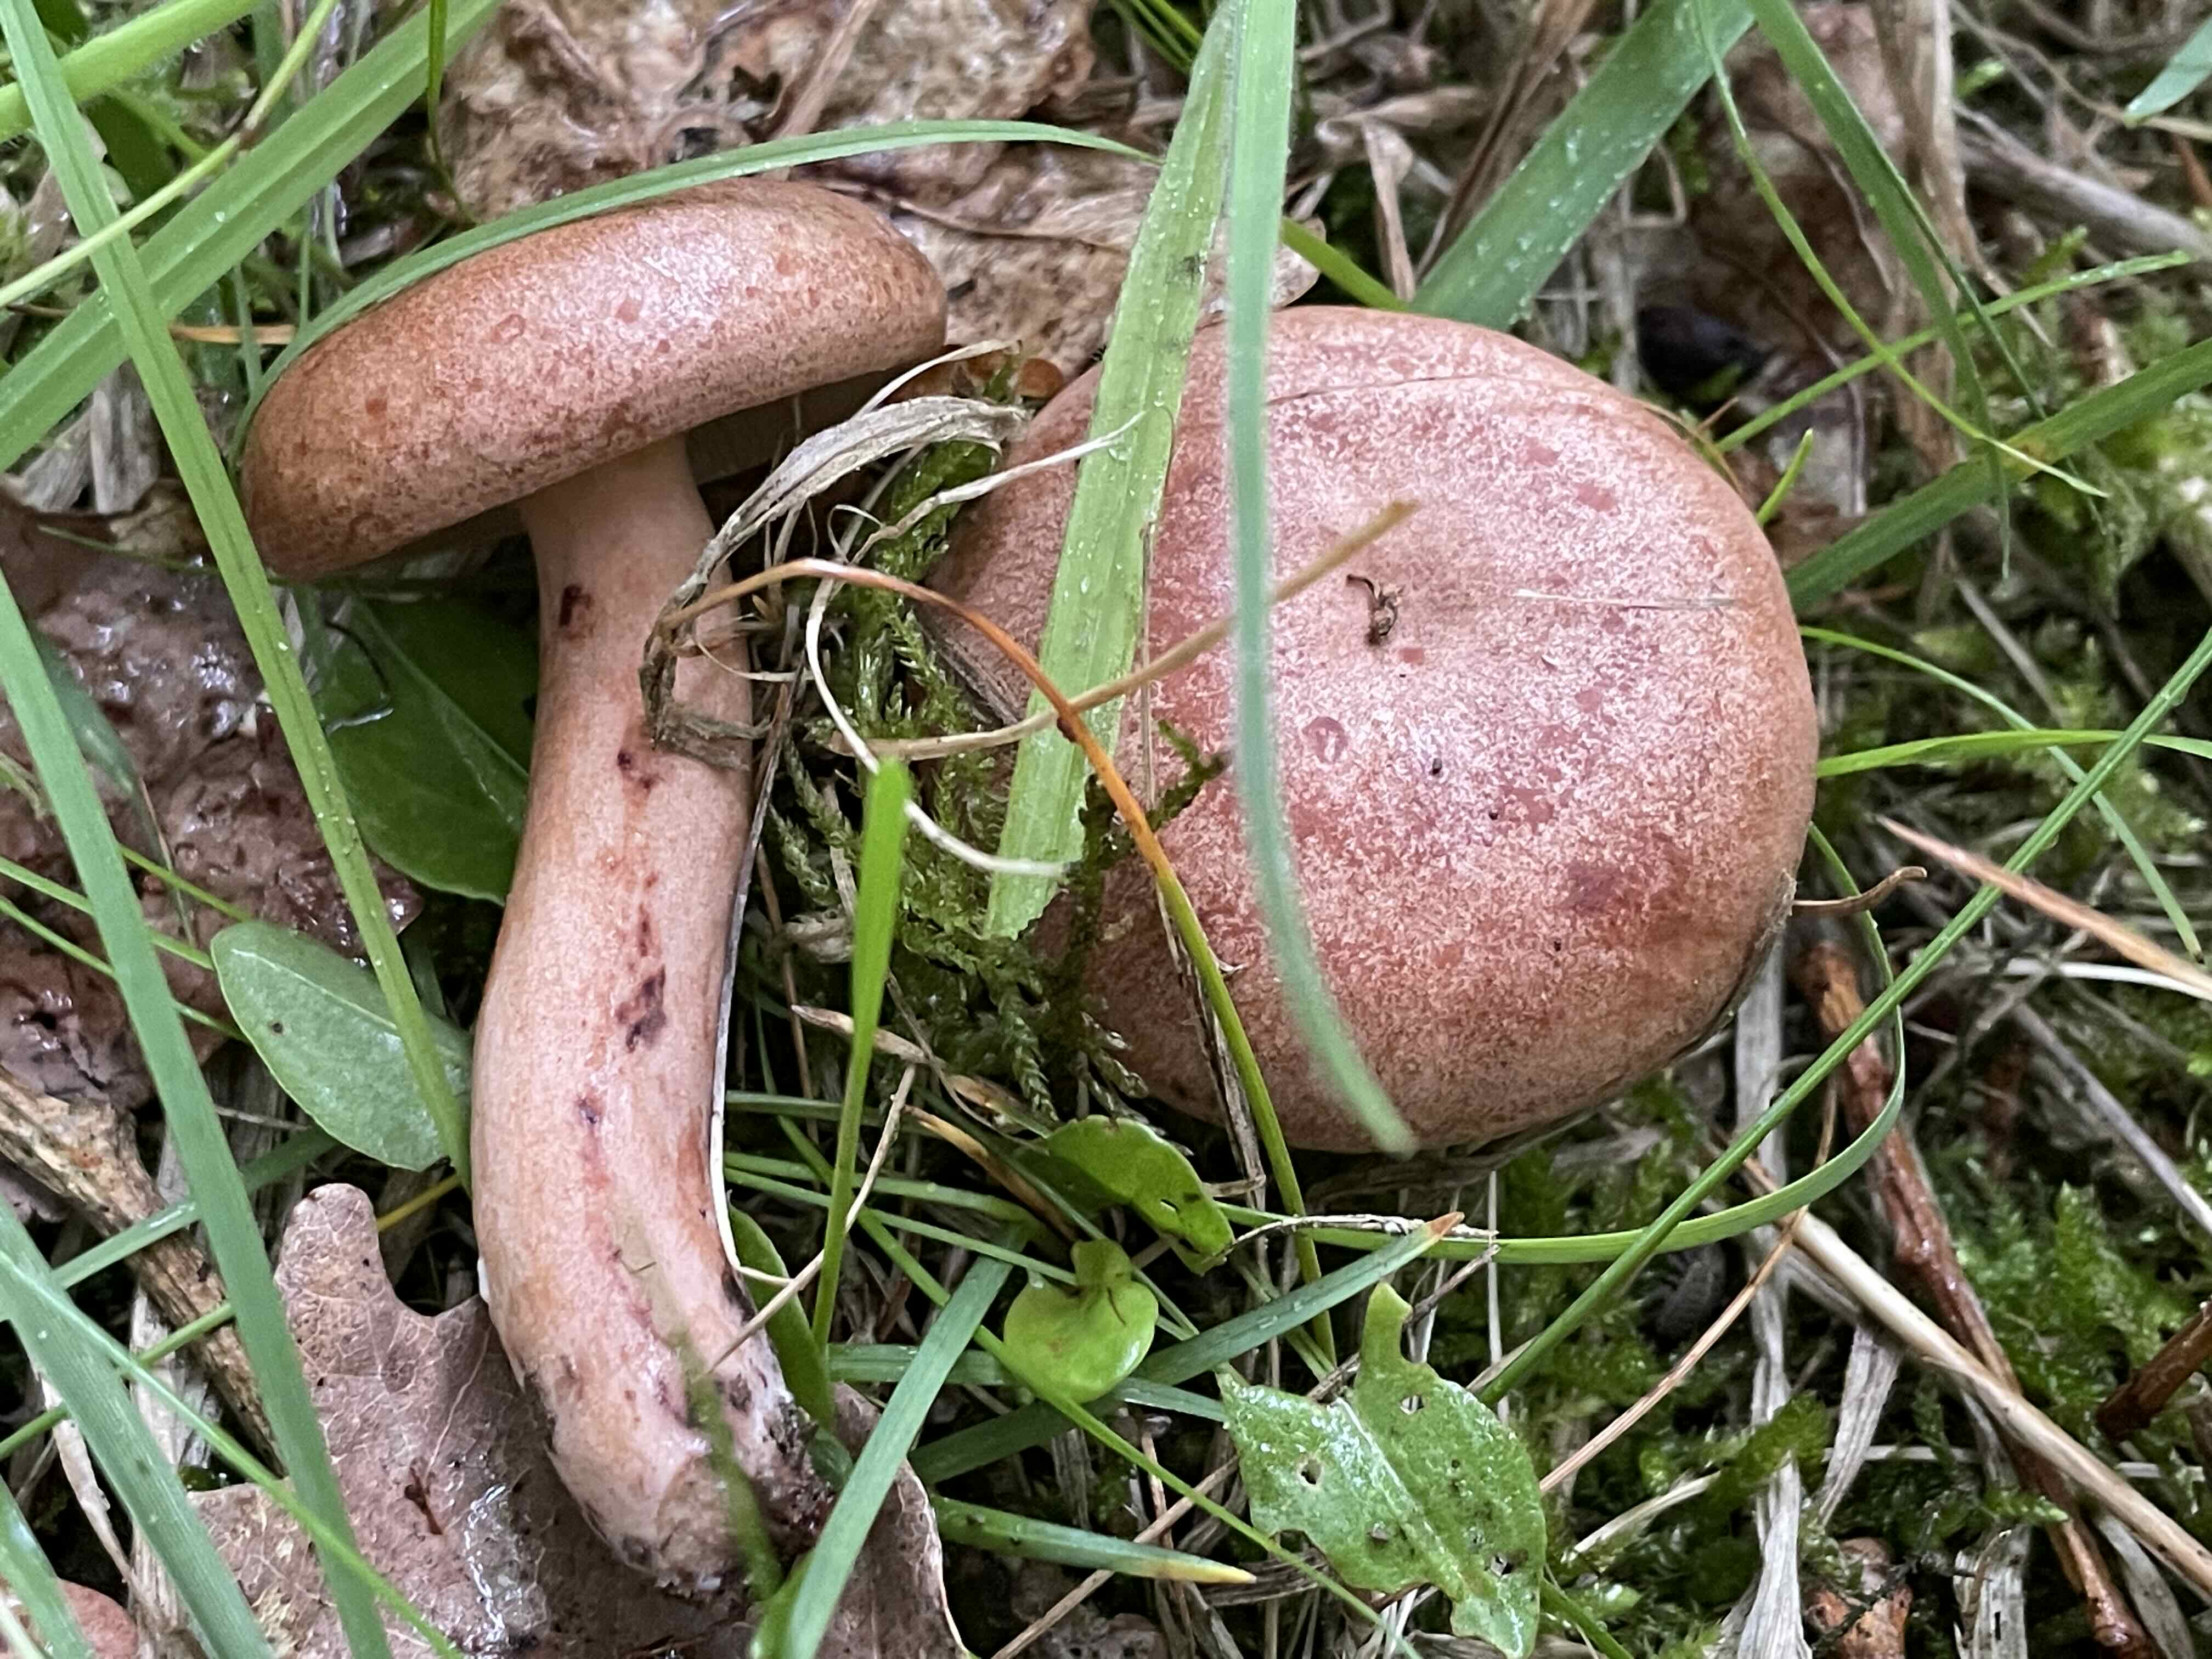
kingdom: Fungi
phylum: Basidiomycota
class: Agaricomycetes
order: Russulales
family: Russulaceae
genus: Lactarius
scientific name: Lactarius quietus
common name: ege-mælkehat
